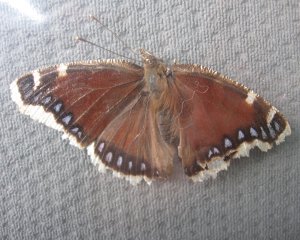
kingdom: Animalia
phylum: Arthropoda
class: Insecta
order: Lepidoptera
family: Nymphalidae
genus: Nymphalis
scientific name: Nymphalis antiopa
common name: Mourning Cloak
